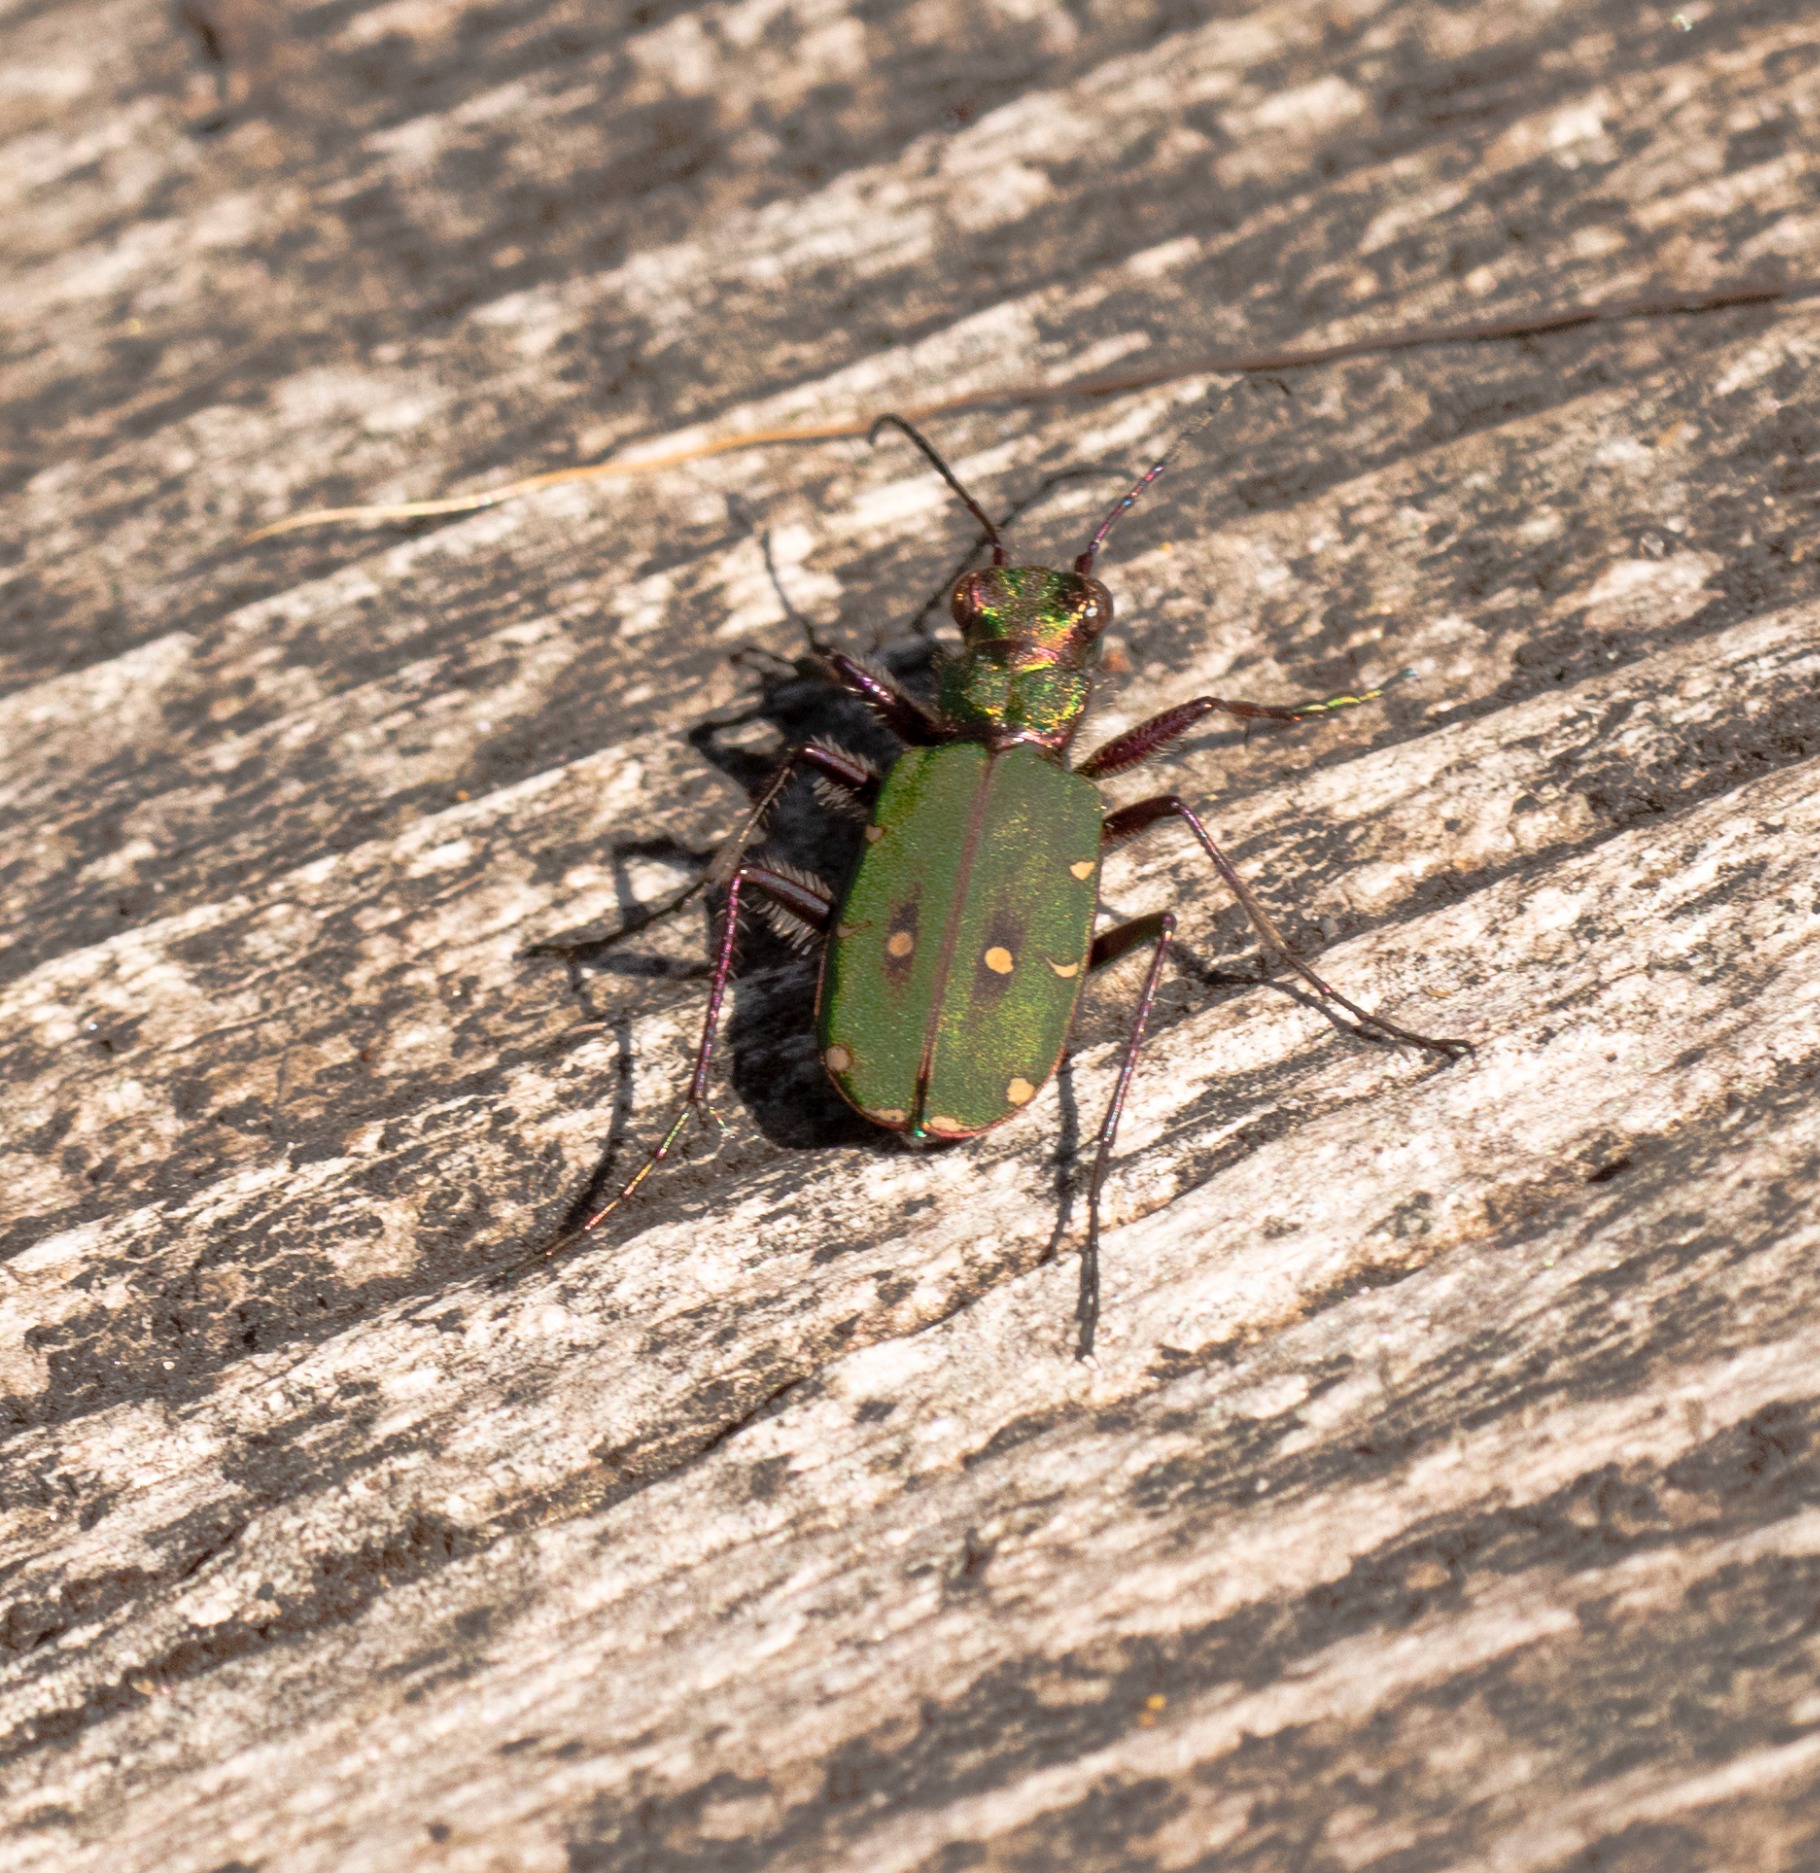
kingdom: Animalia
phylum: Arthropoda
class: Insecta
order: Coleoptera
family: Carabidae
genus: Cicindela
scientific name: Cicindela campestris
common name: Grøn sandspringer
